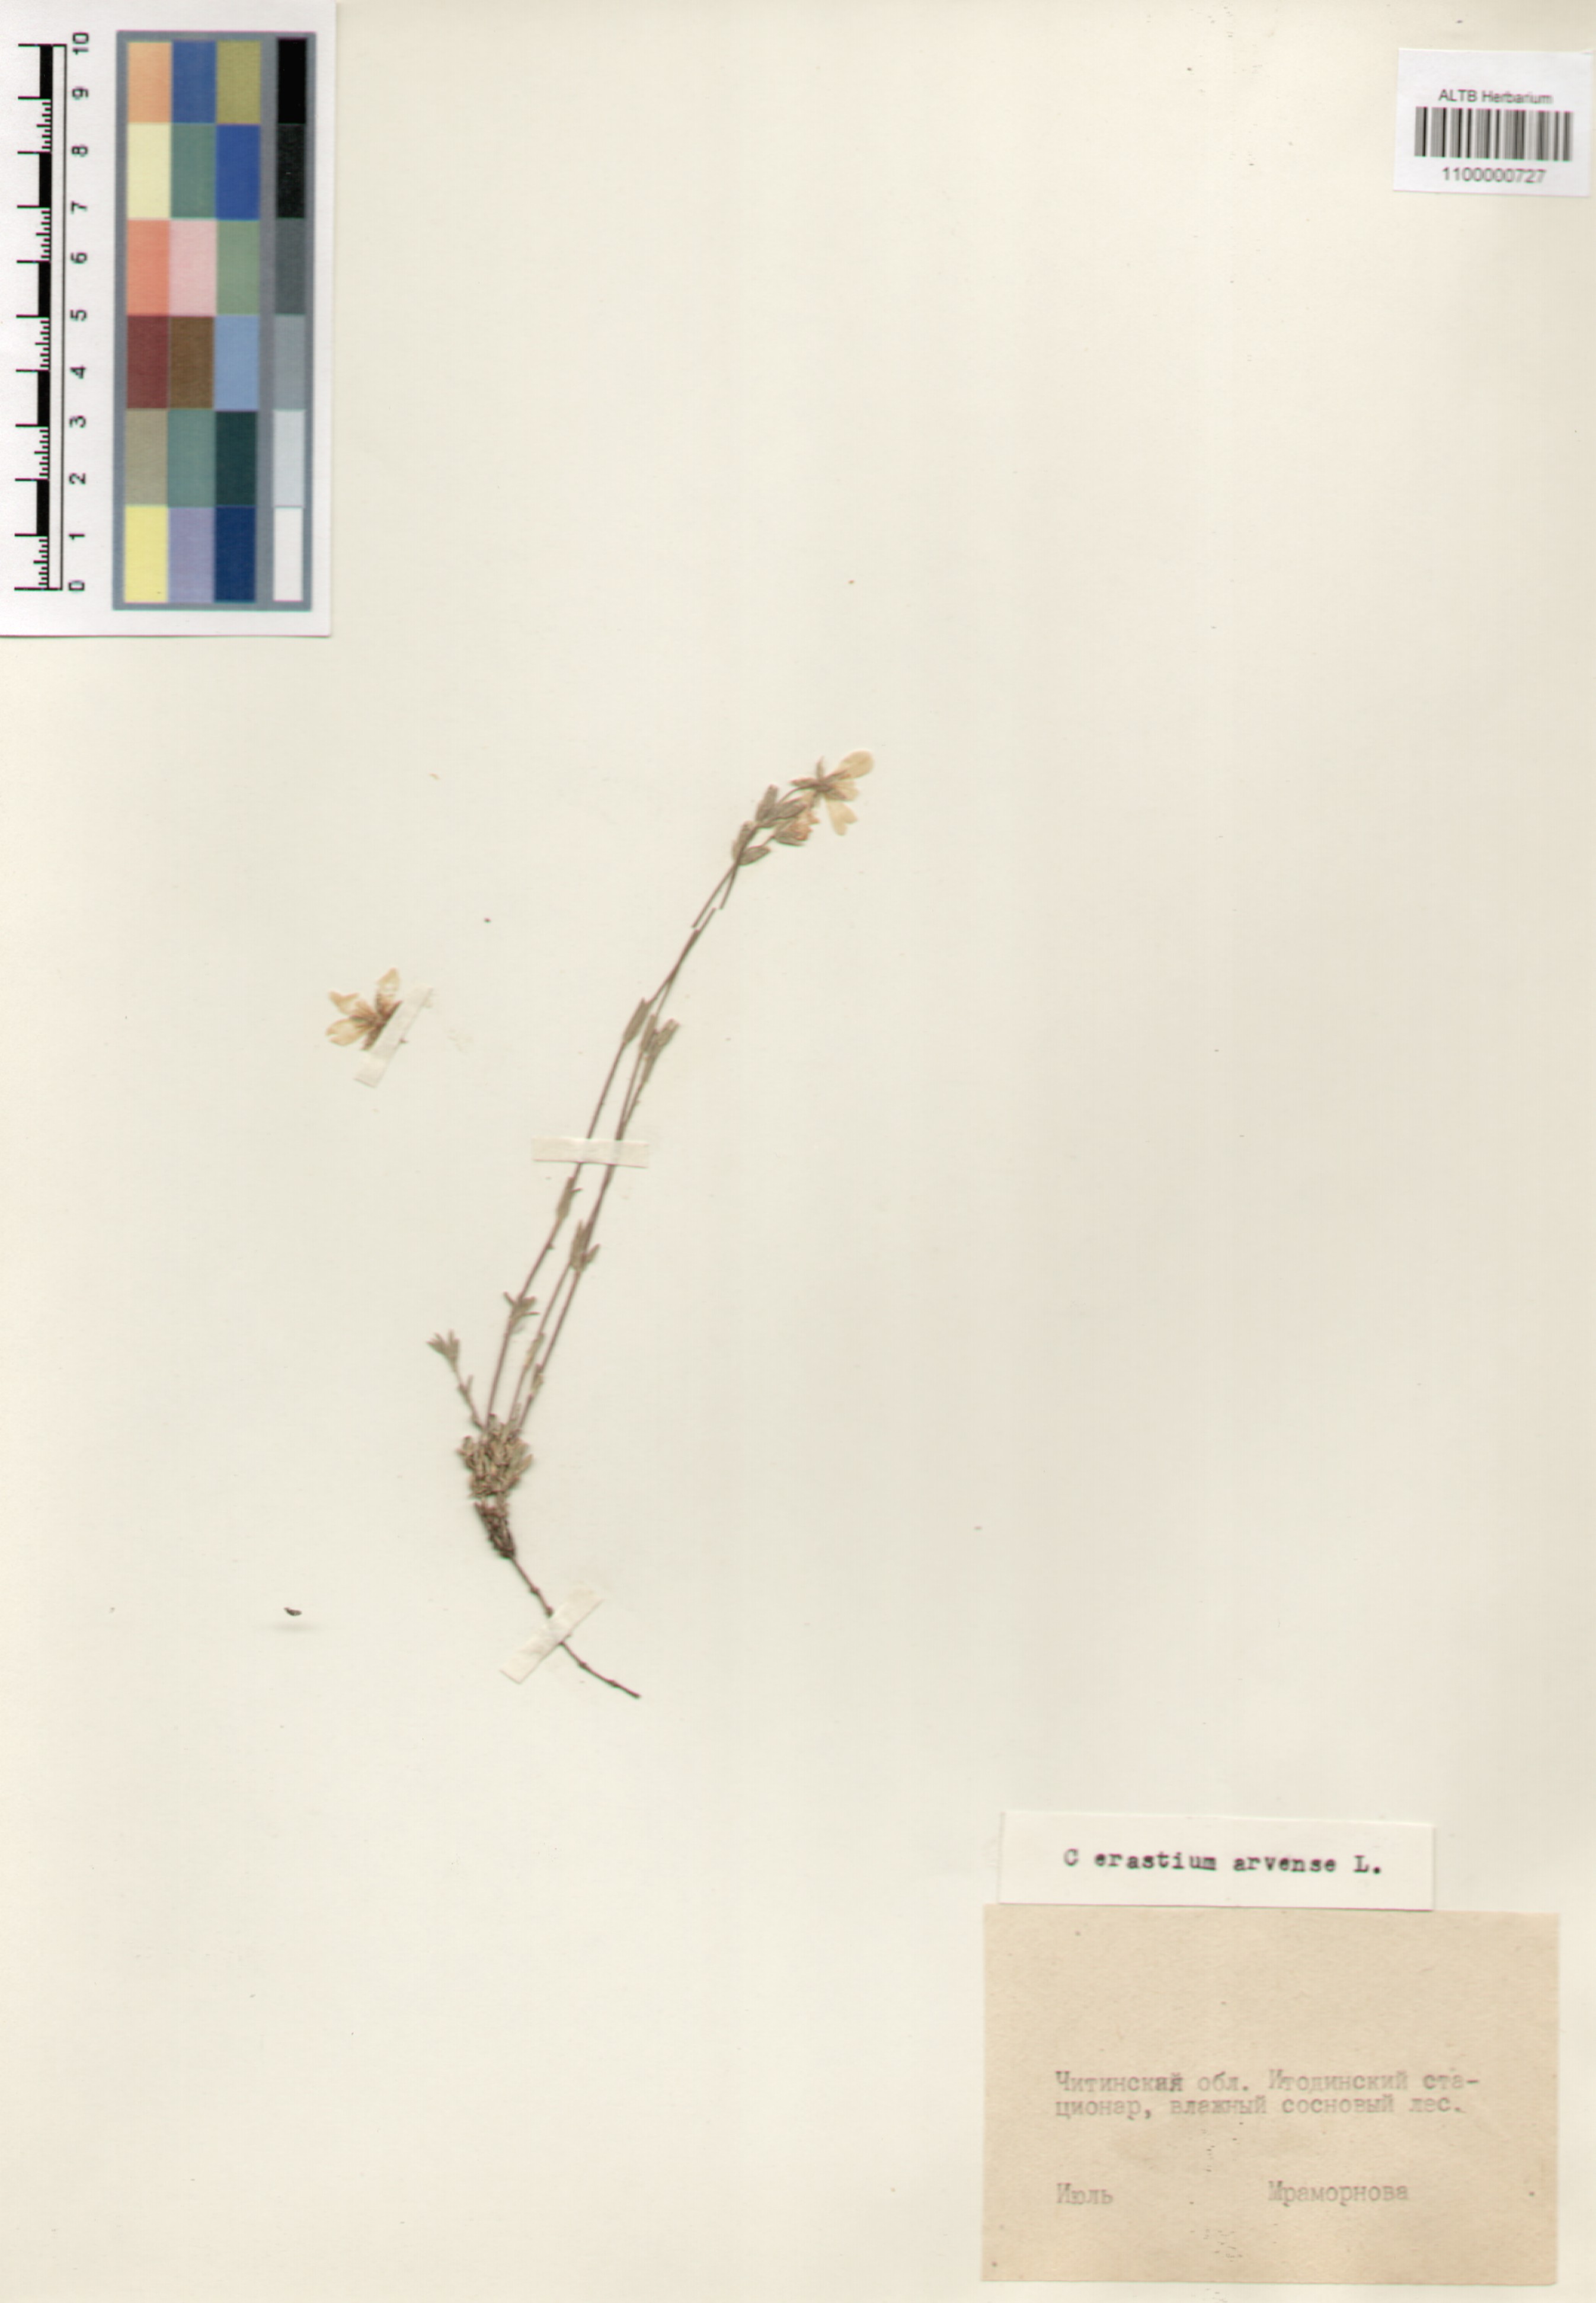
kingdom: Plantae
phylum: Tracheophyta
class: Magnoliopsida
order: Caryophyllales
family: Caryophyllaceae
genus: Cerastium
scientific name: Cerastium arvense
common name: Field mouse-ear
